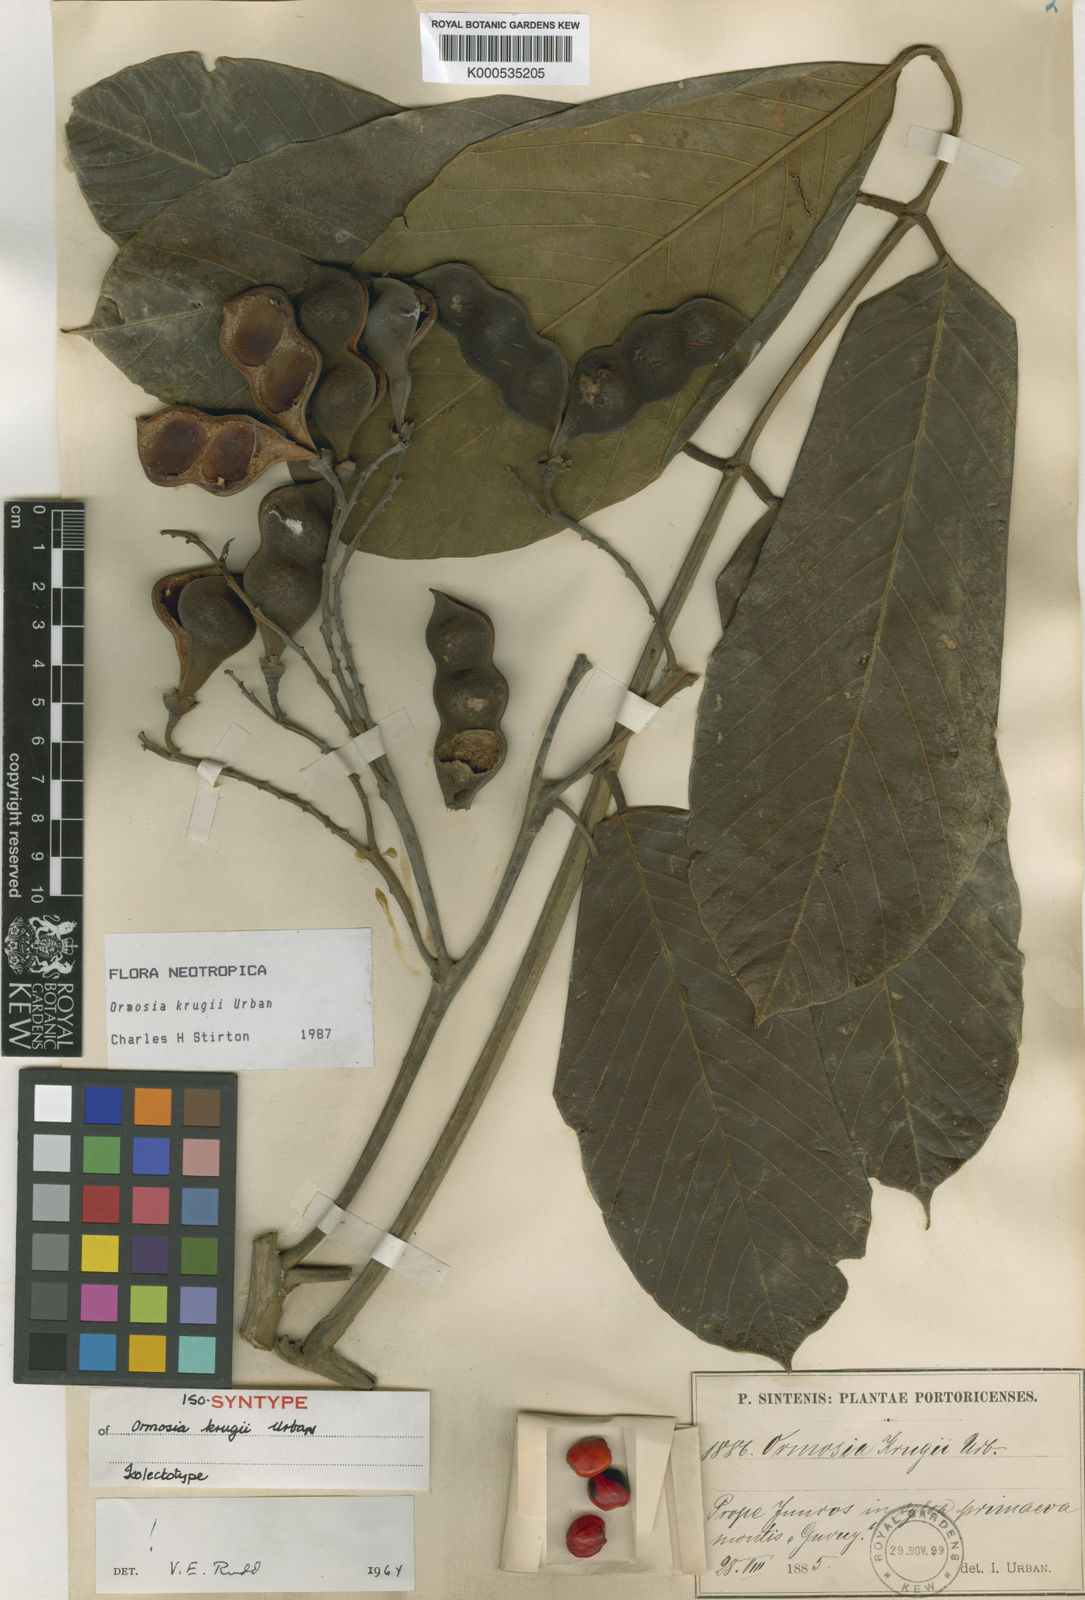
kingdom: Plantae
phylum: Tracheophyta
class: Magnoliopsida
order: Fabales
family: Fabaceae
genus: Ormosia
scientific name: Ormosia krugii
